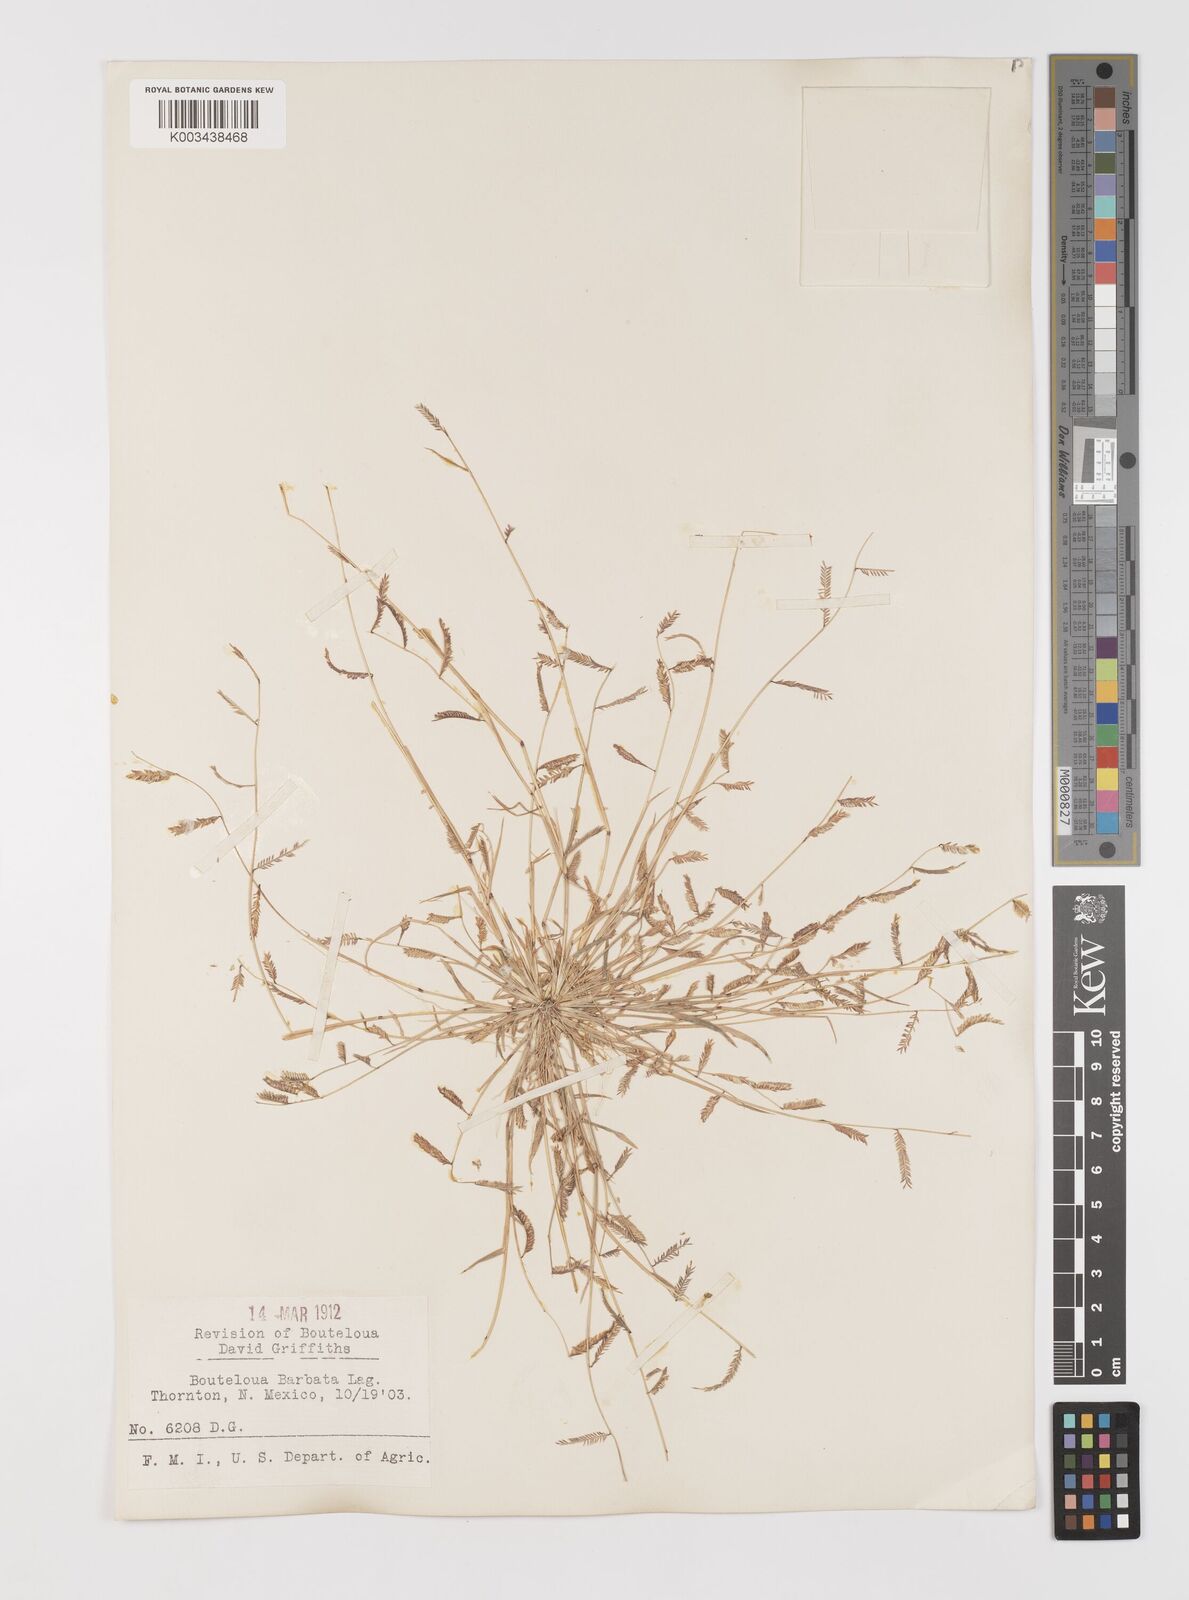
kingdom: Plantae
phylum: Tracheophyta
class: Liliopsida
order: Poales
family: Poaceae
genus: Bouteloua
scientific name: Bouteloua
